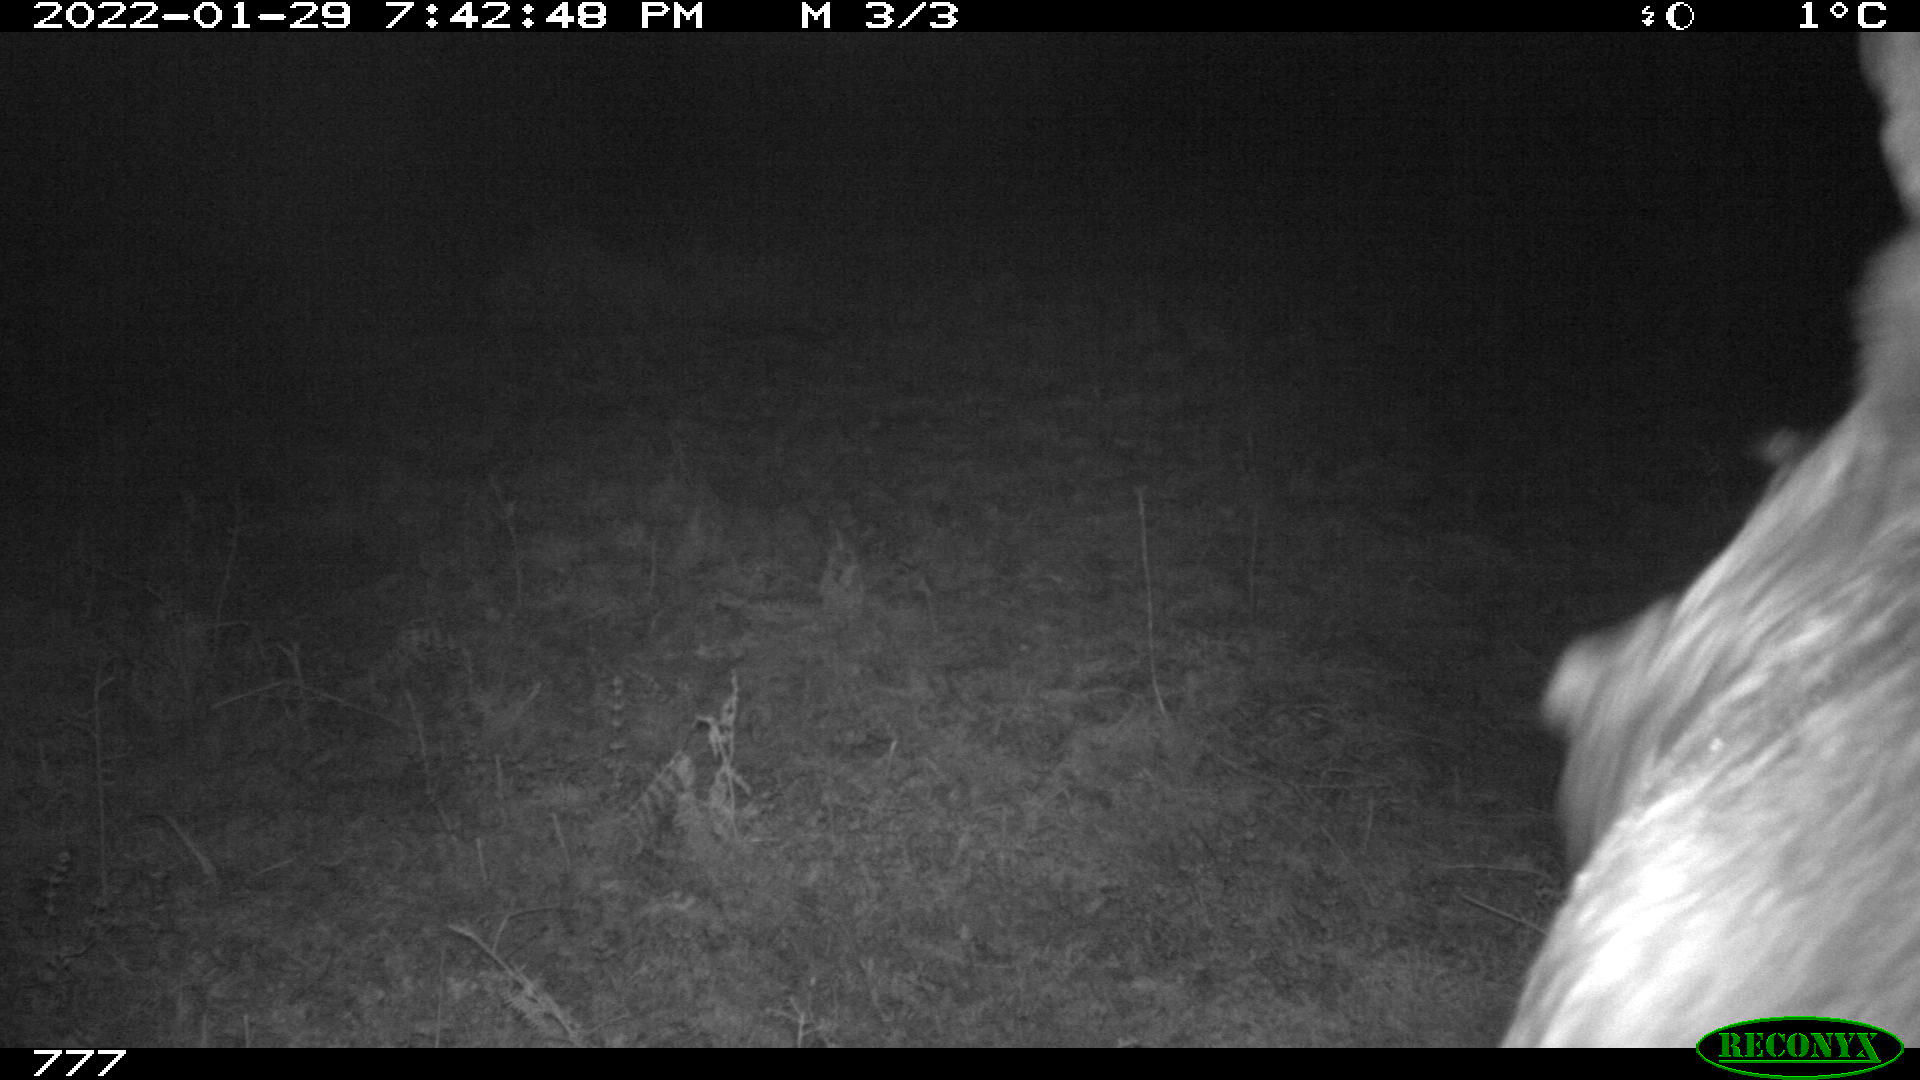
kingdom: Animalia
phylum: Chordata
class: Mammalia
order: Artiodactyla
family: Bovidae
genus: Bos
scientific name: Bos taurus
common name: Domesticated cattle
